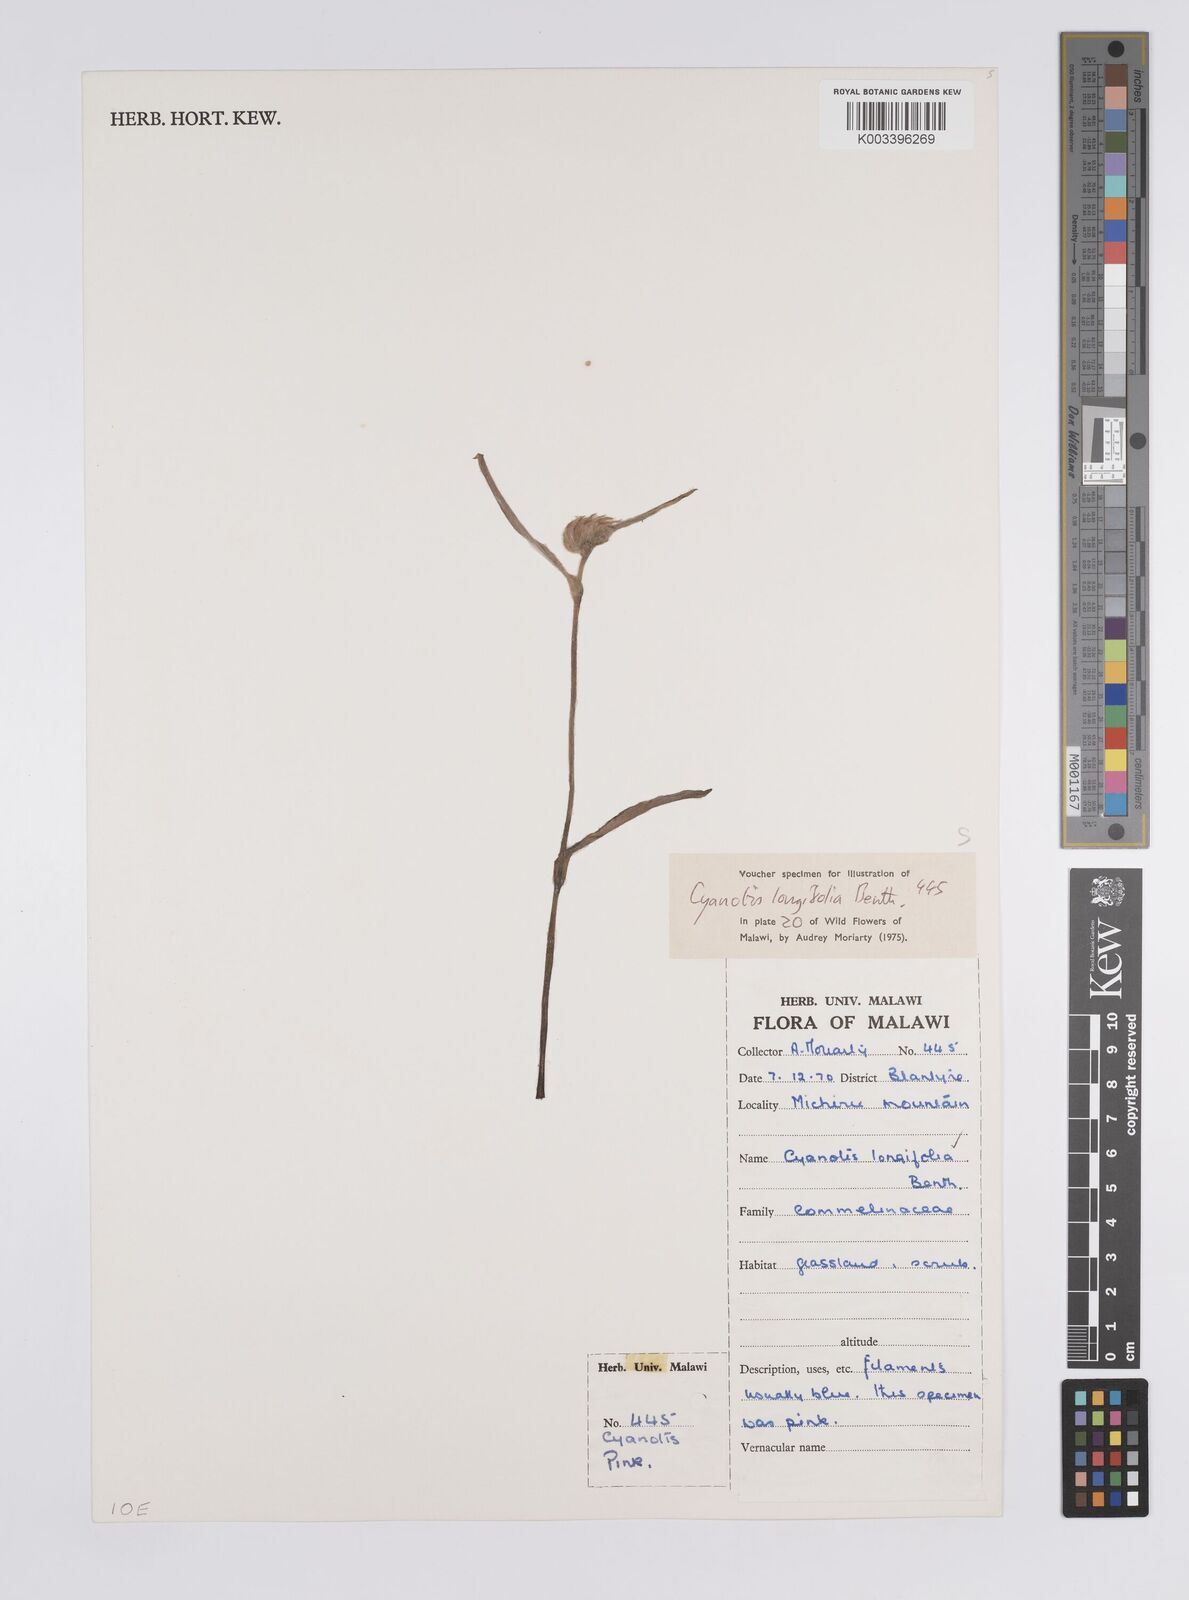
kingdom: Plantae
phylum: Tracheophyta
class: Liliopsida
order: Commelinales
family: Commelinaceae
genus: Cyanotis
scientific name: Cyanotis longifolia
